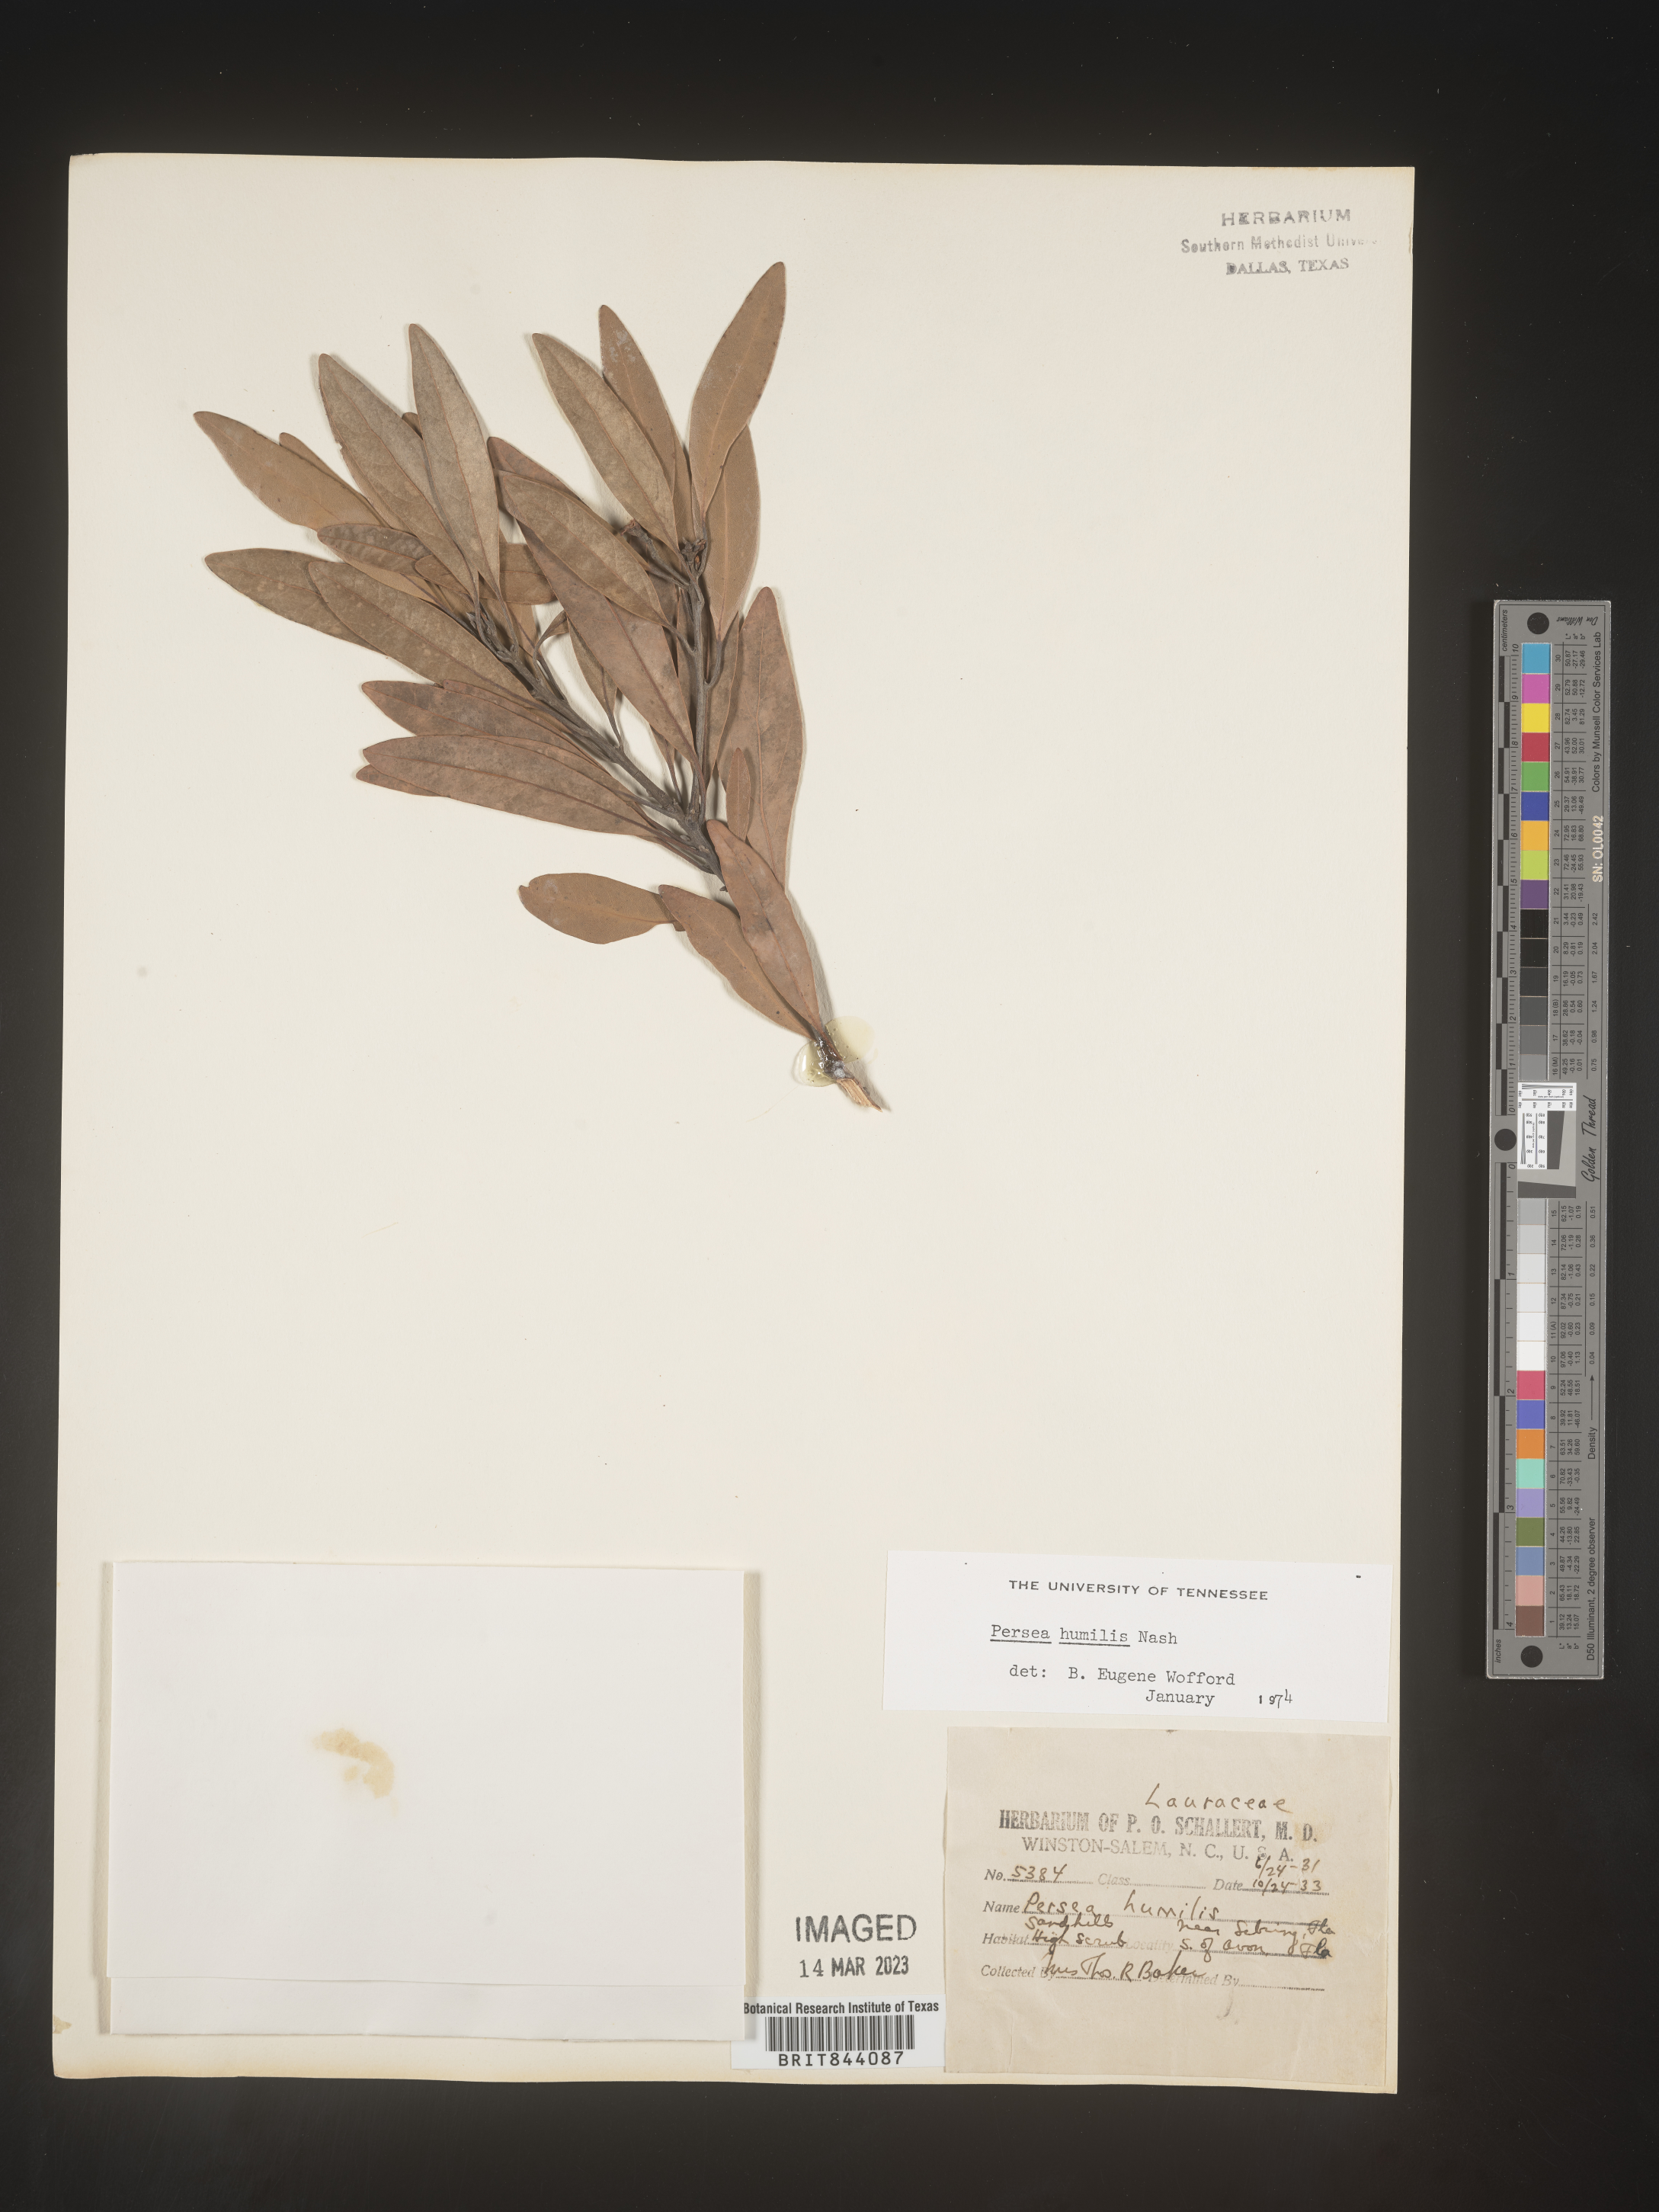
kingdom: Plantae
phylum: Tracheophyta
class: Magnoliopsida
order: Laurales
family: Lauraceae
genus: Persea
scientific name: Persea
